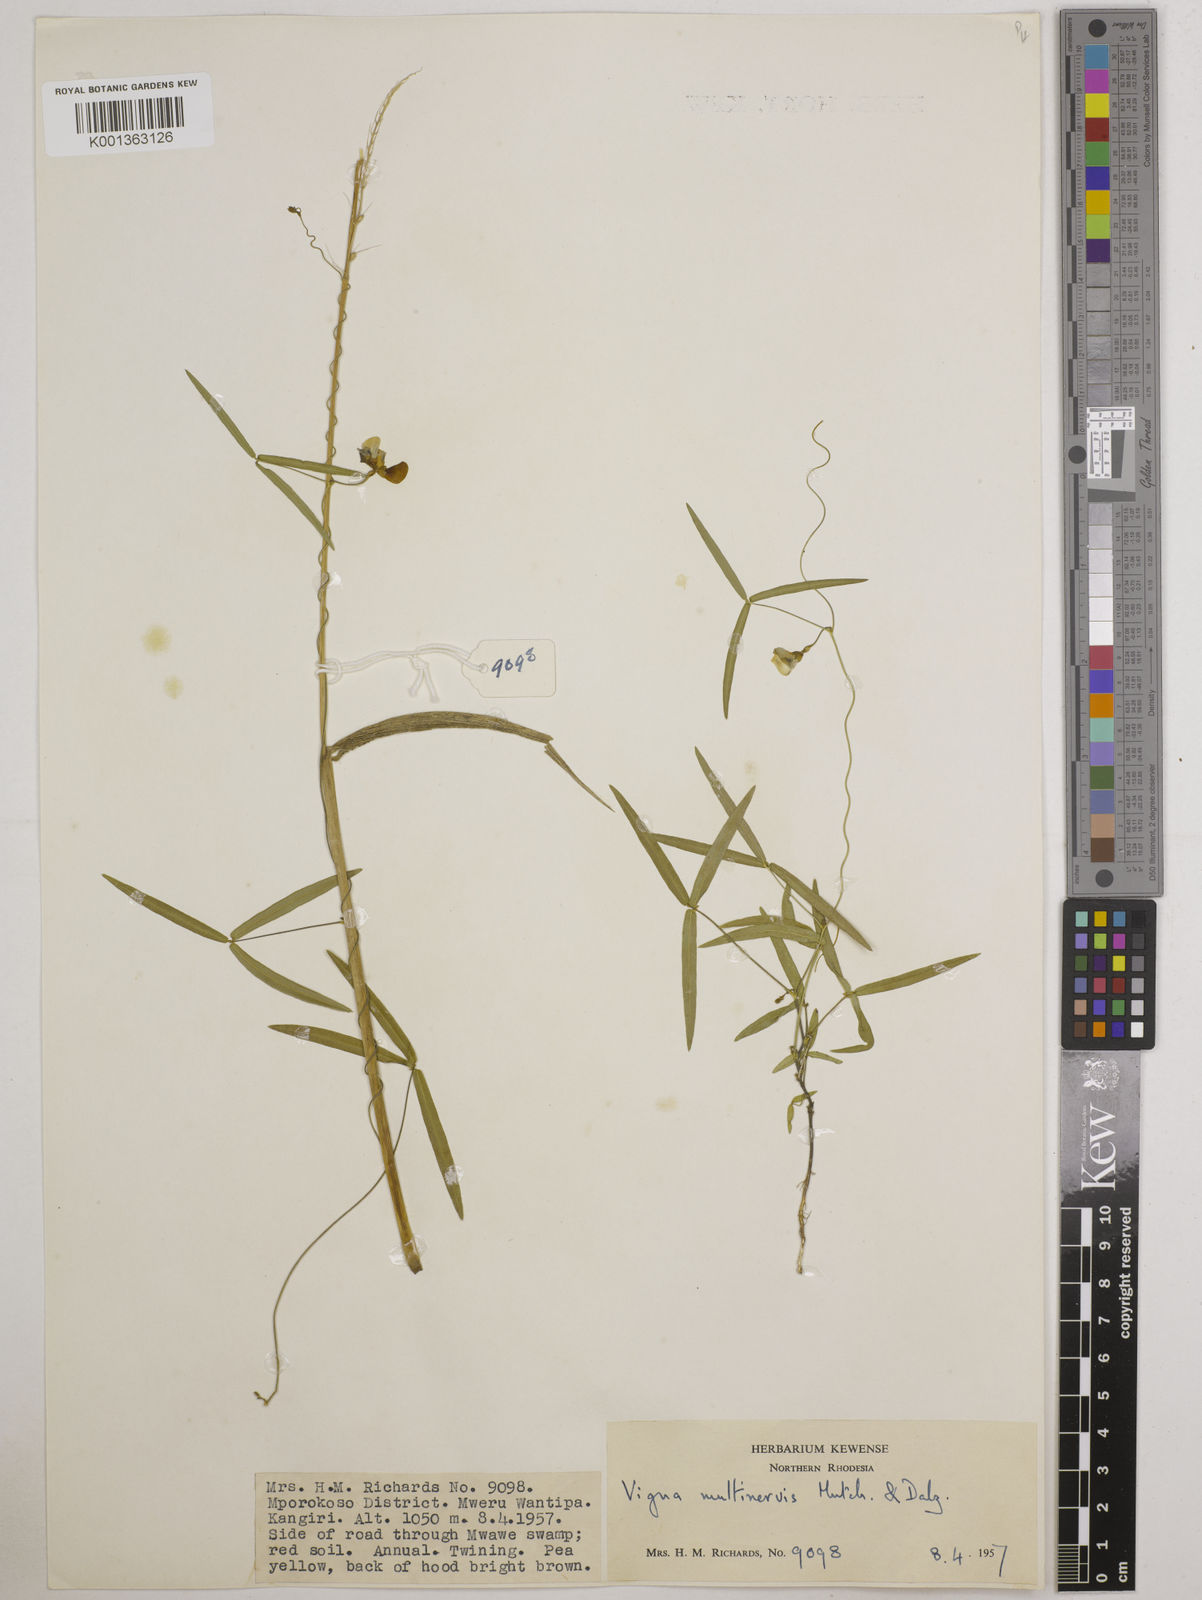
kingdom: Plantae
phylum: Tracheophyta
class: Magnoliopsida
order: Fabales
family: Fabaceae
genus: Vigna
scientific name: Vigna multinervis
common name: Fula-pulaar
